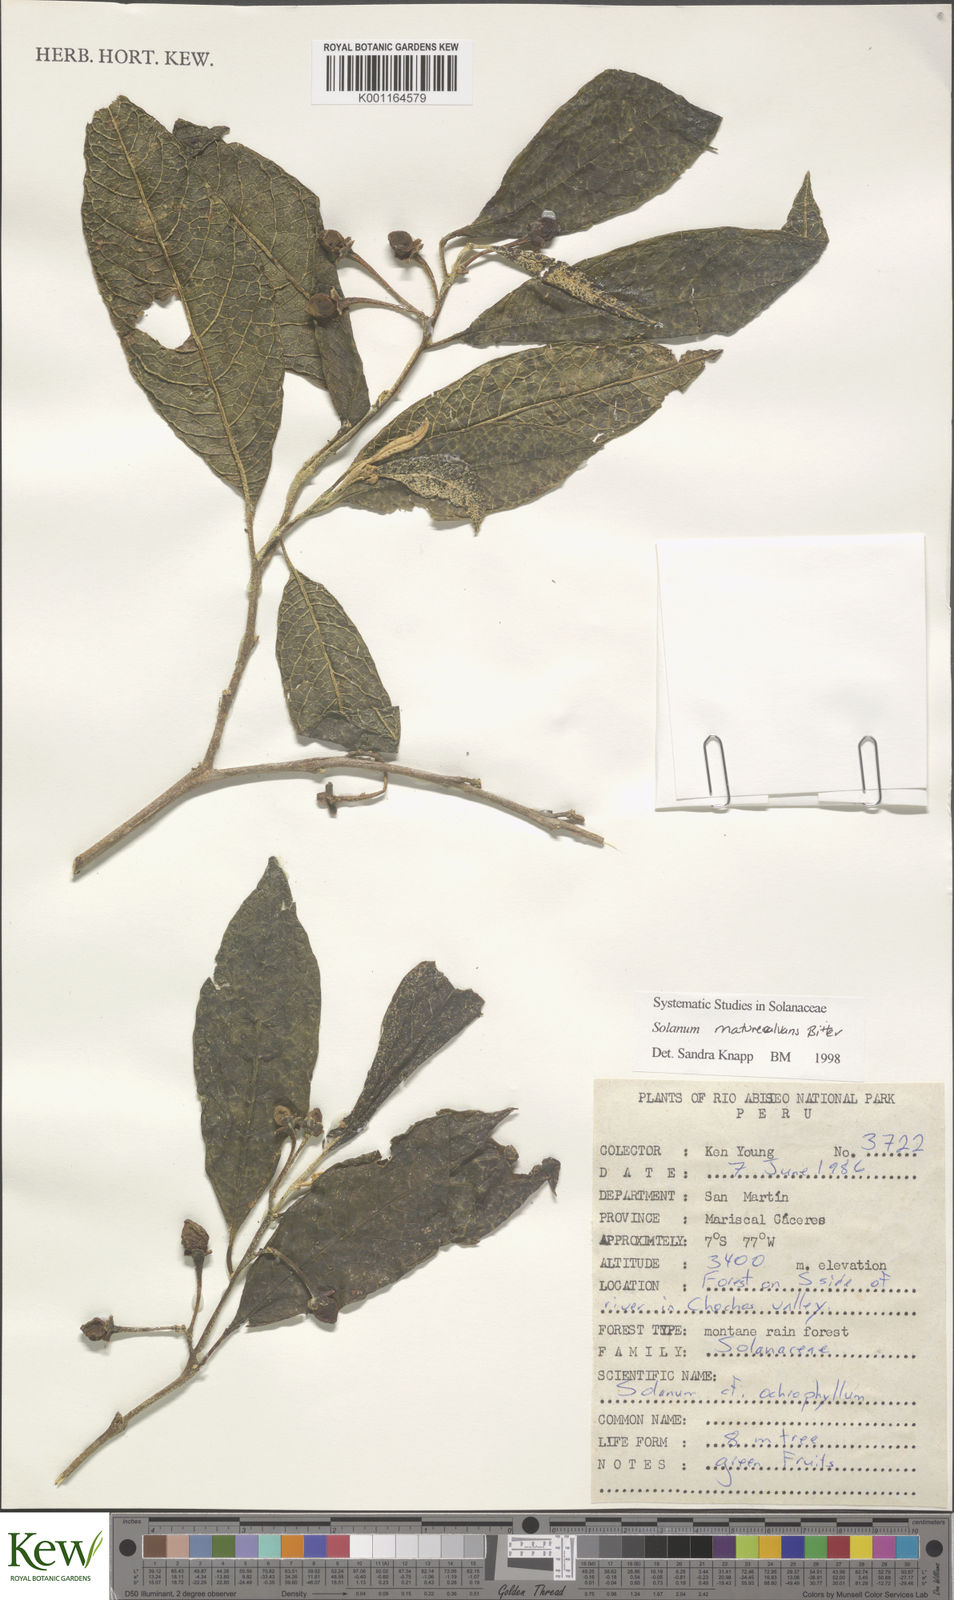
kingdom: Plantae
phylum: Tracheophyta
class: Magnoliopsida
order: Solanales
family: Solanaceae
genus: Solanum
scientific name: Solanum maturecalvans
